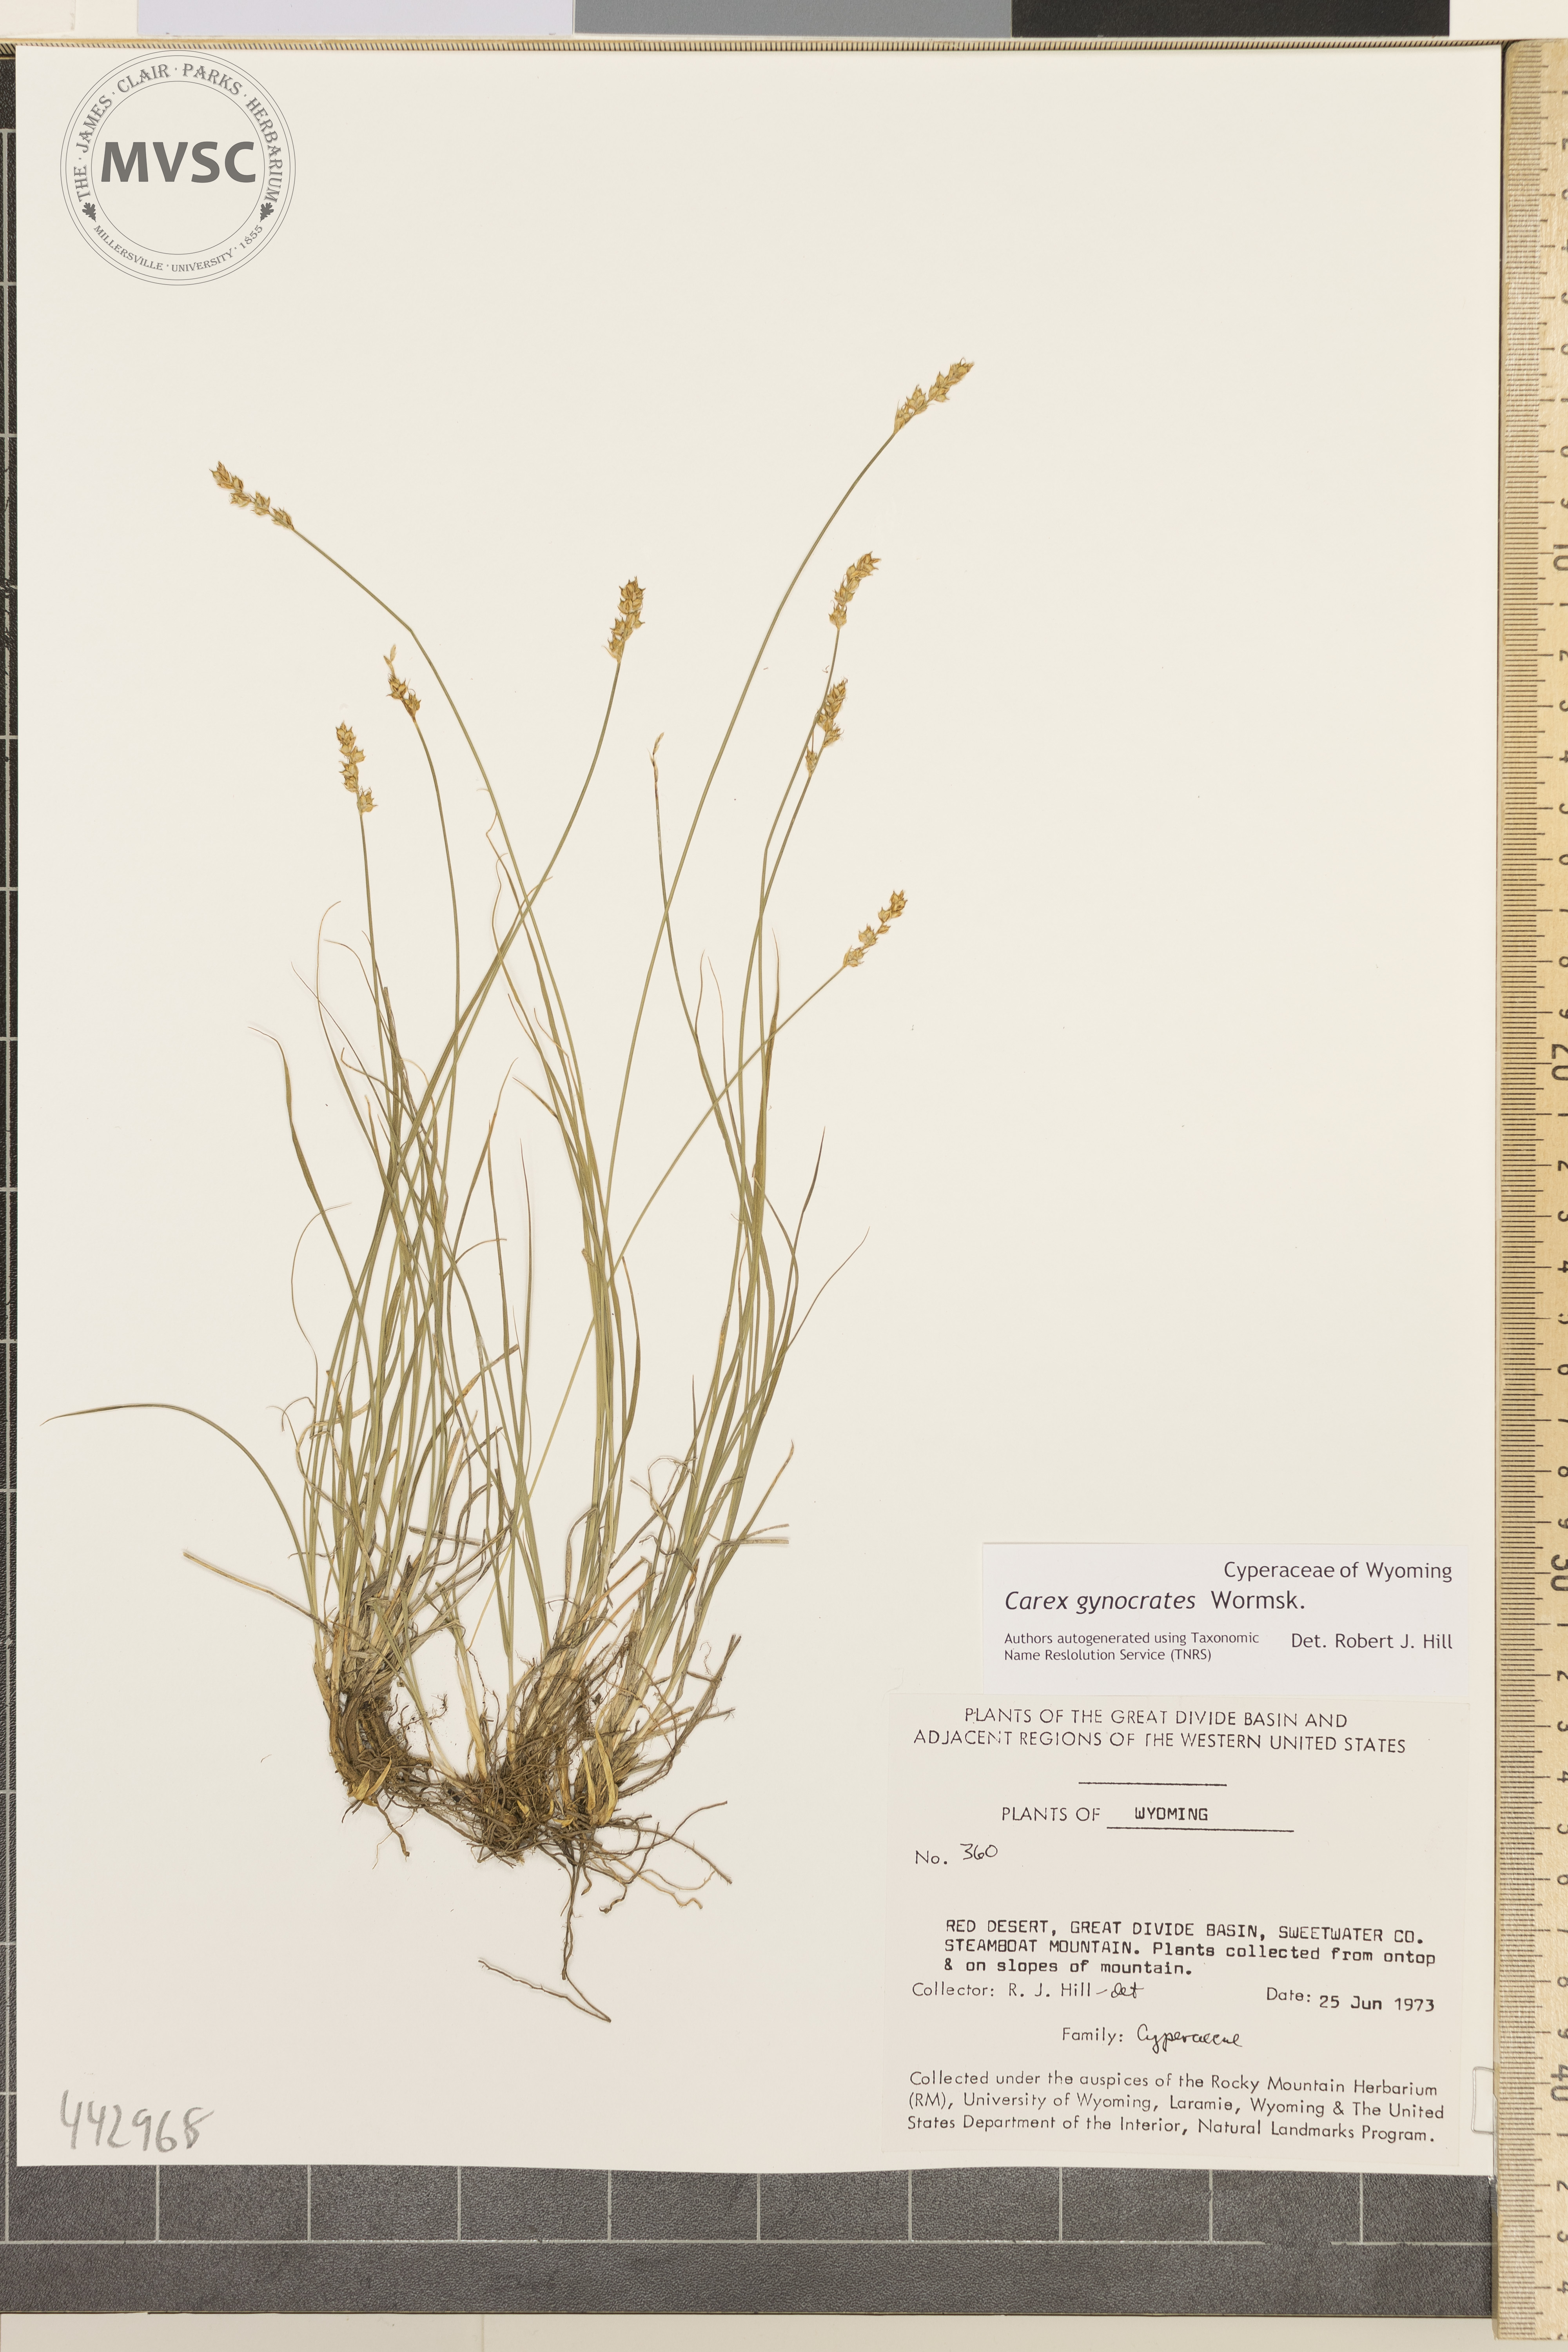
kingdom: Plantae
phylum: Tracheophyta
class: Liliopsida
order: Poales
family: Cyperaceae
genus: Carex
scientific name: Carex gynocrates
